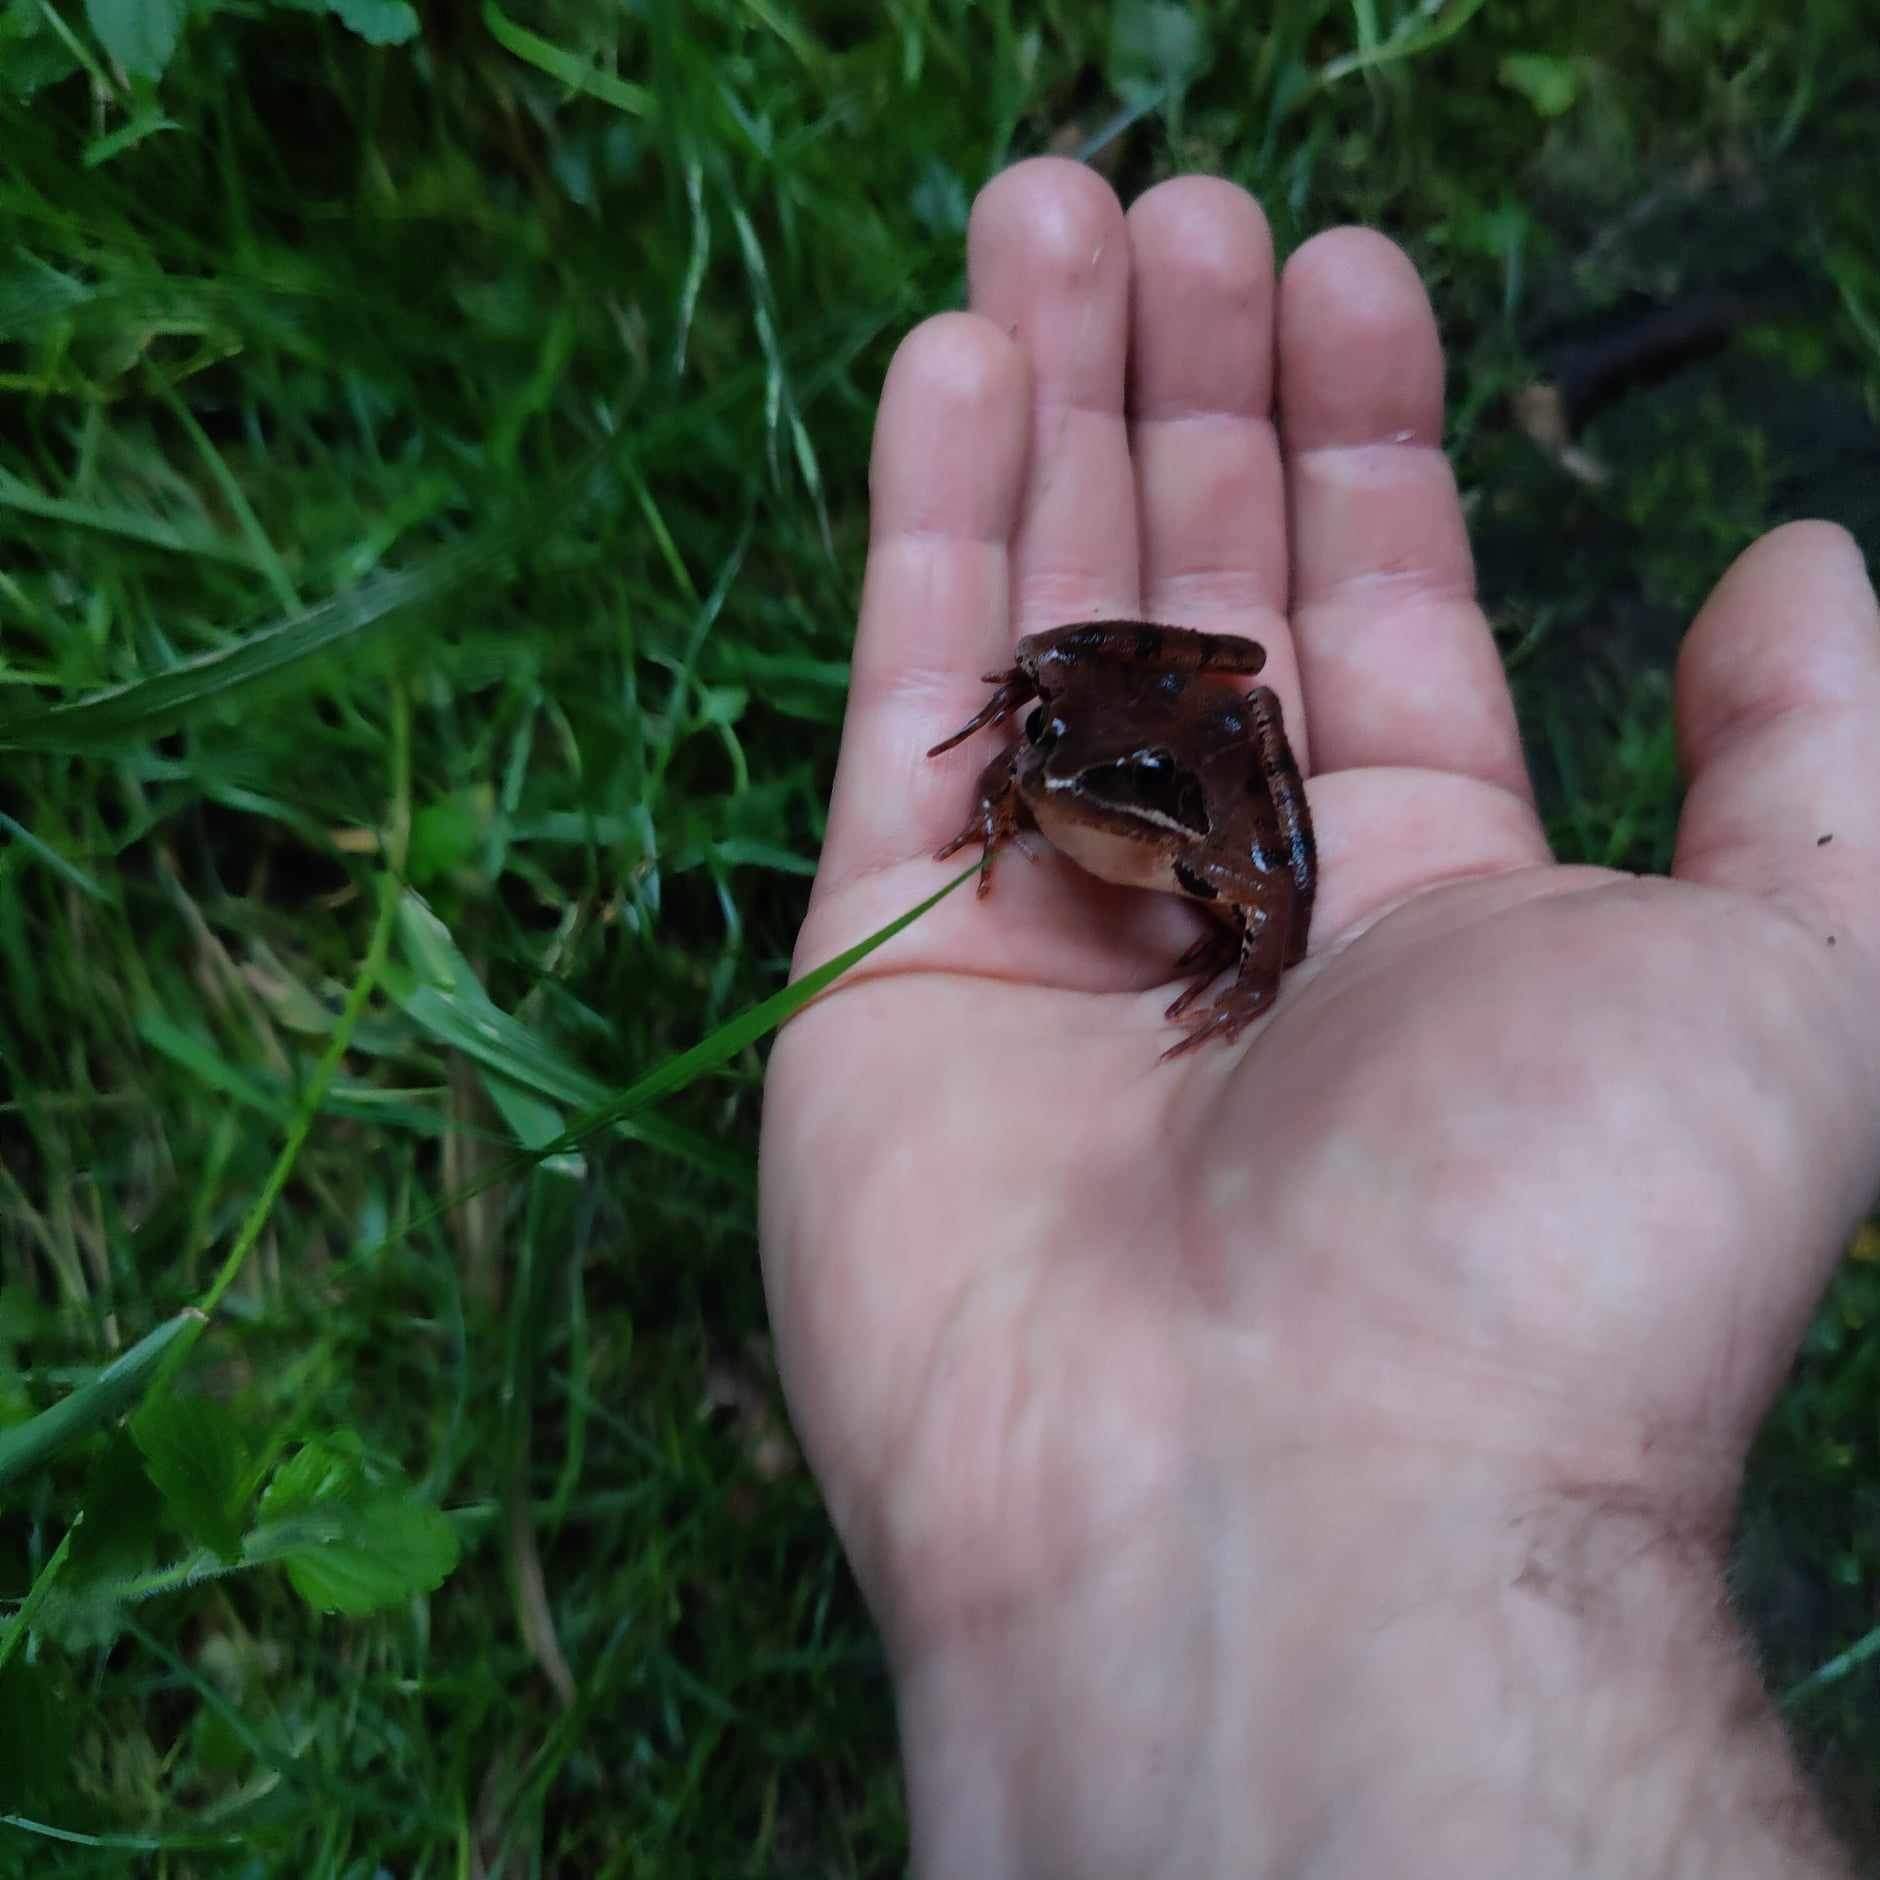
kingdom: Animalia
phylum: Chordata
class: Amphibia
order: Anura
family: Ranidae
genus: Rana
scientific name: Rana dalmatina
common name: Springfrø
